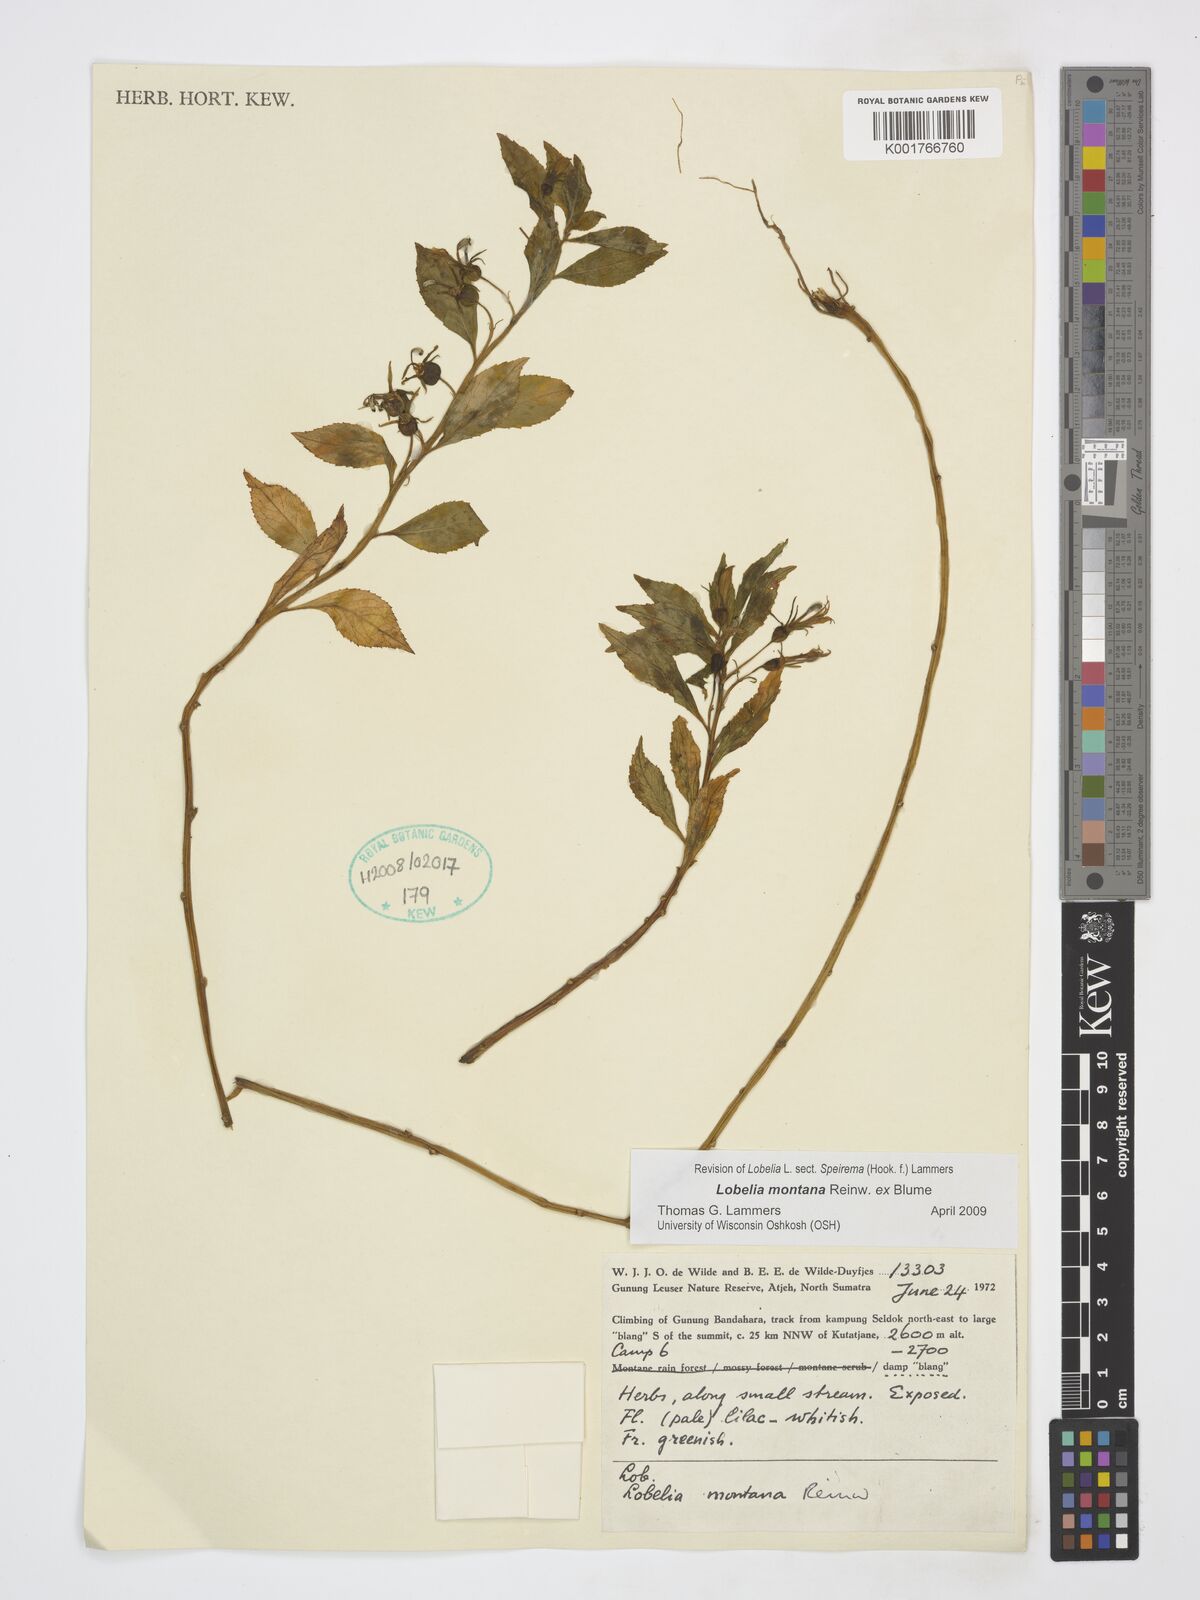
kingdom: Plantae
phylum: Tracheophyta
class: Magnoliopsida
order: Asterales
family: Campanulaceae
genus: Lobelia
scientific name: Lobelia montana
